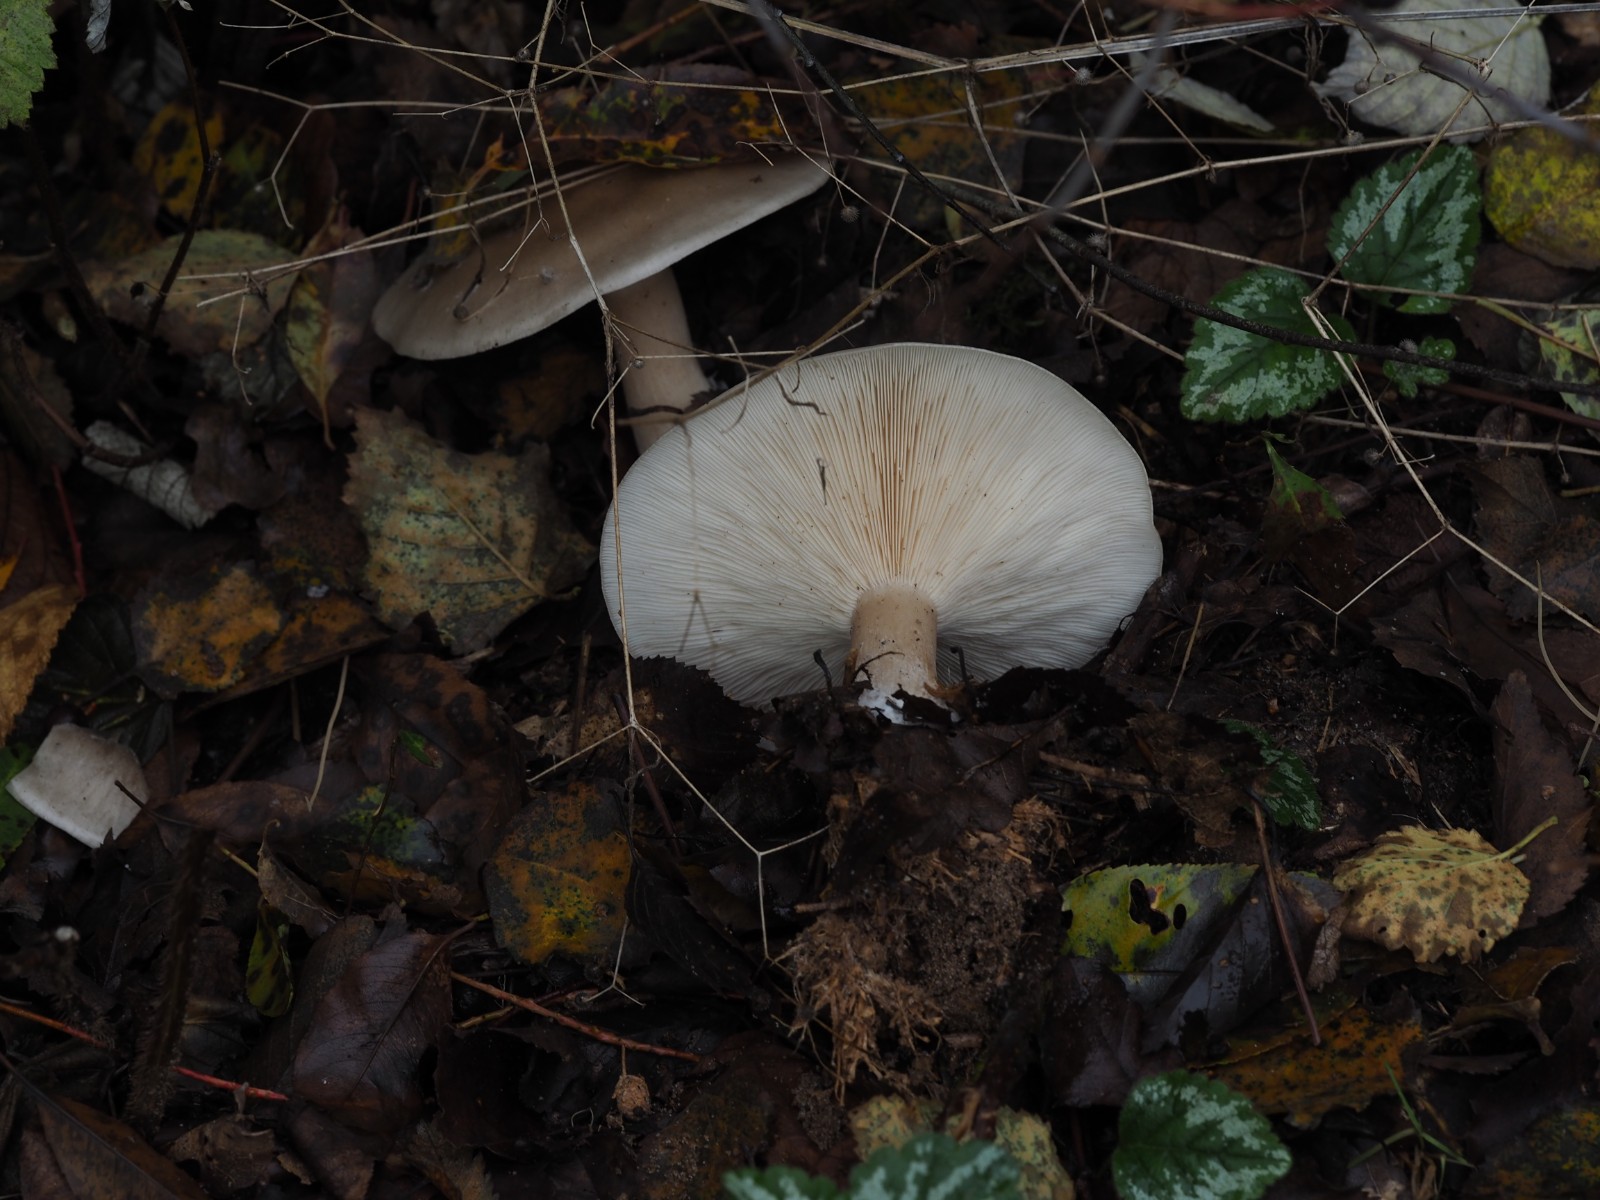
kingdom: Fungi
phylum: Basidiomycota
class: Agaricomycetes
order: Agaricales
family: Tricholomataceae
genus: Clitocybe
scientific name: Clitocybe nebularis
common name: tåge-tragthat
